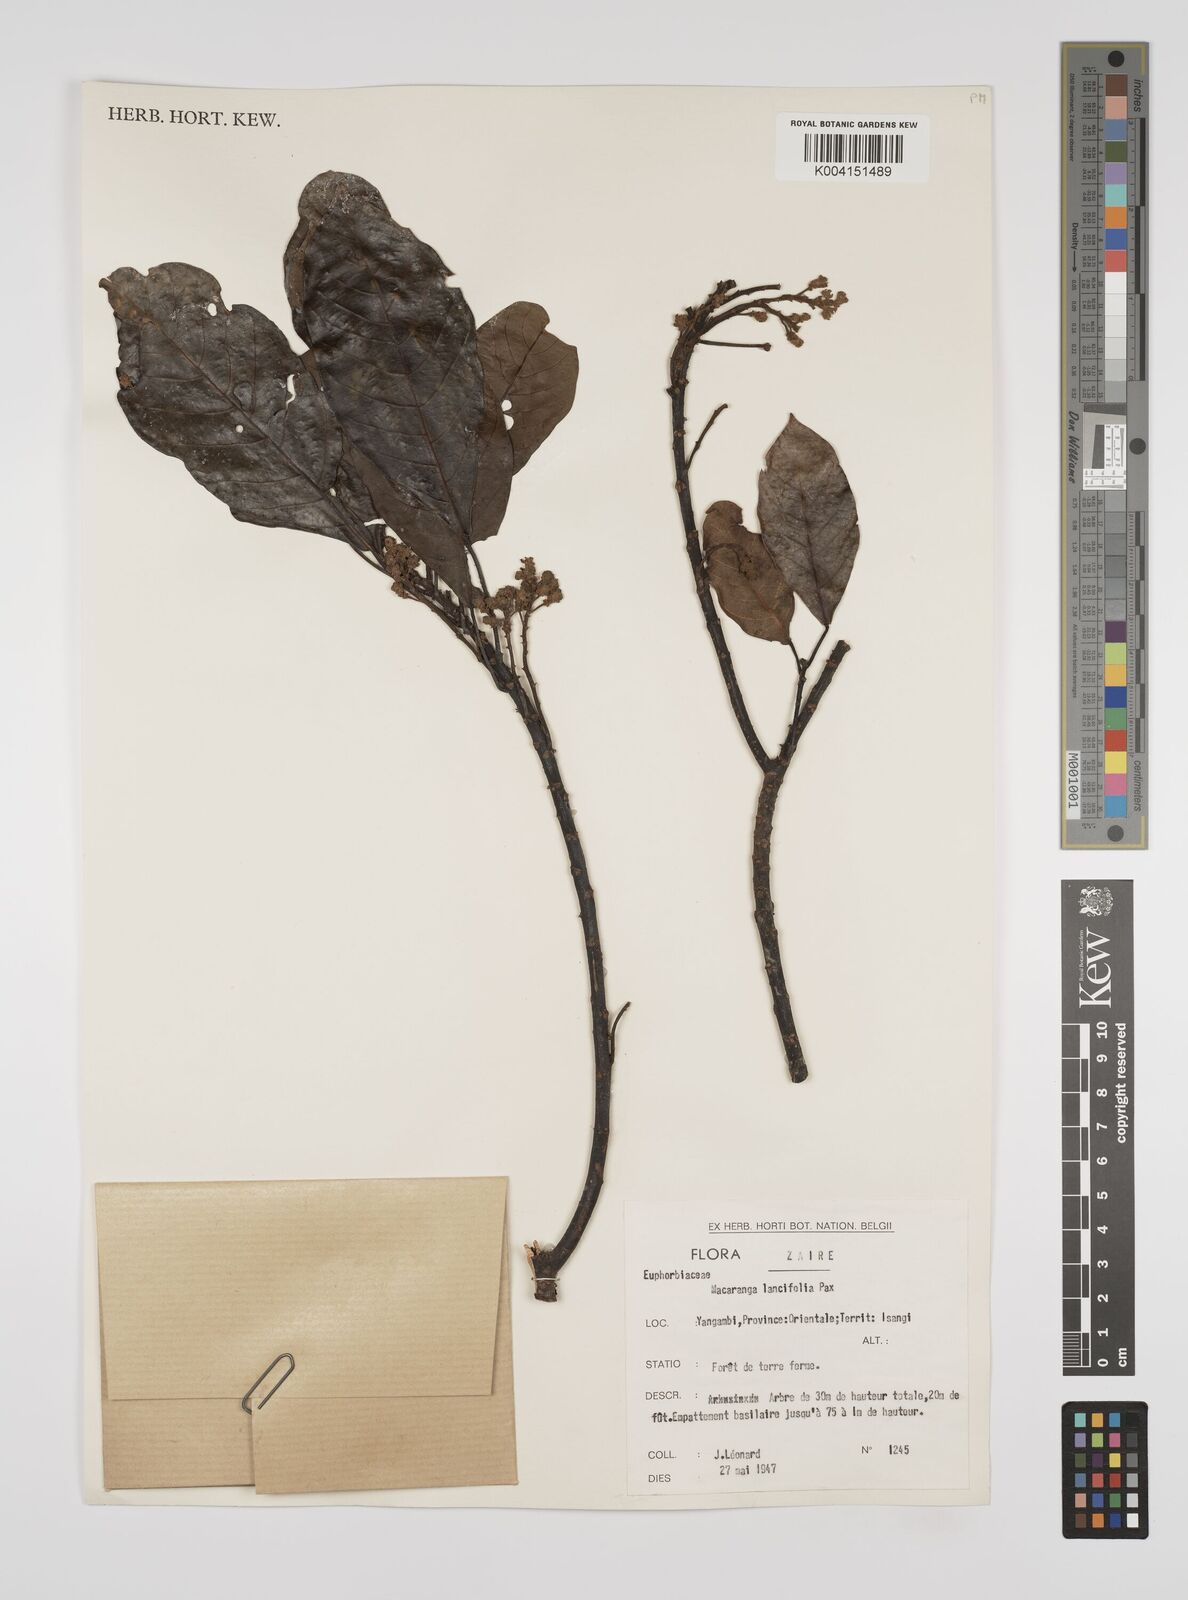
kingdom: Plantae
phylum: Tracheophyta
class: Magnoliopsida
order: Malpighiales
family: Euphorbiaceae
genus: Macaranga
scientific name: Macaranga barteri
